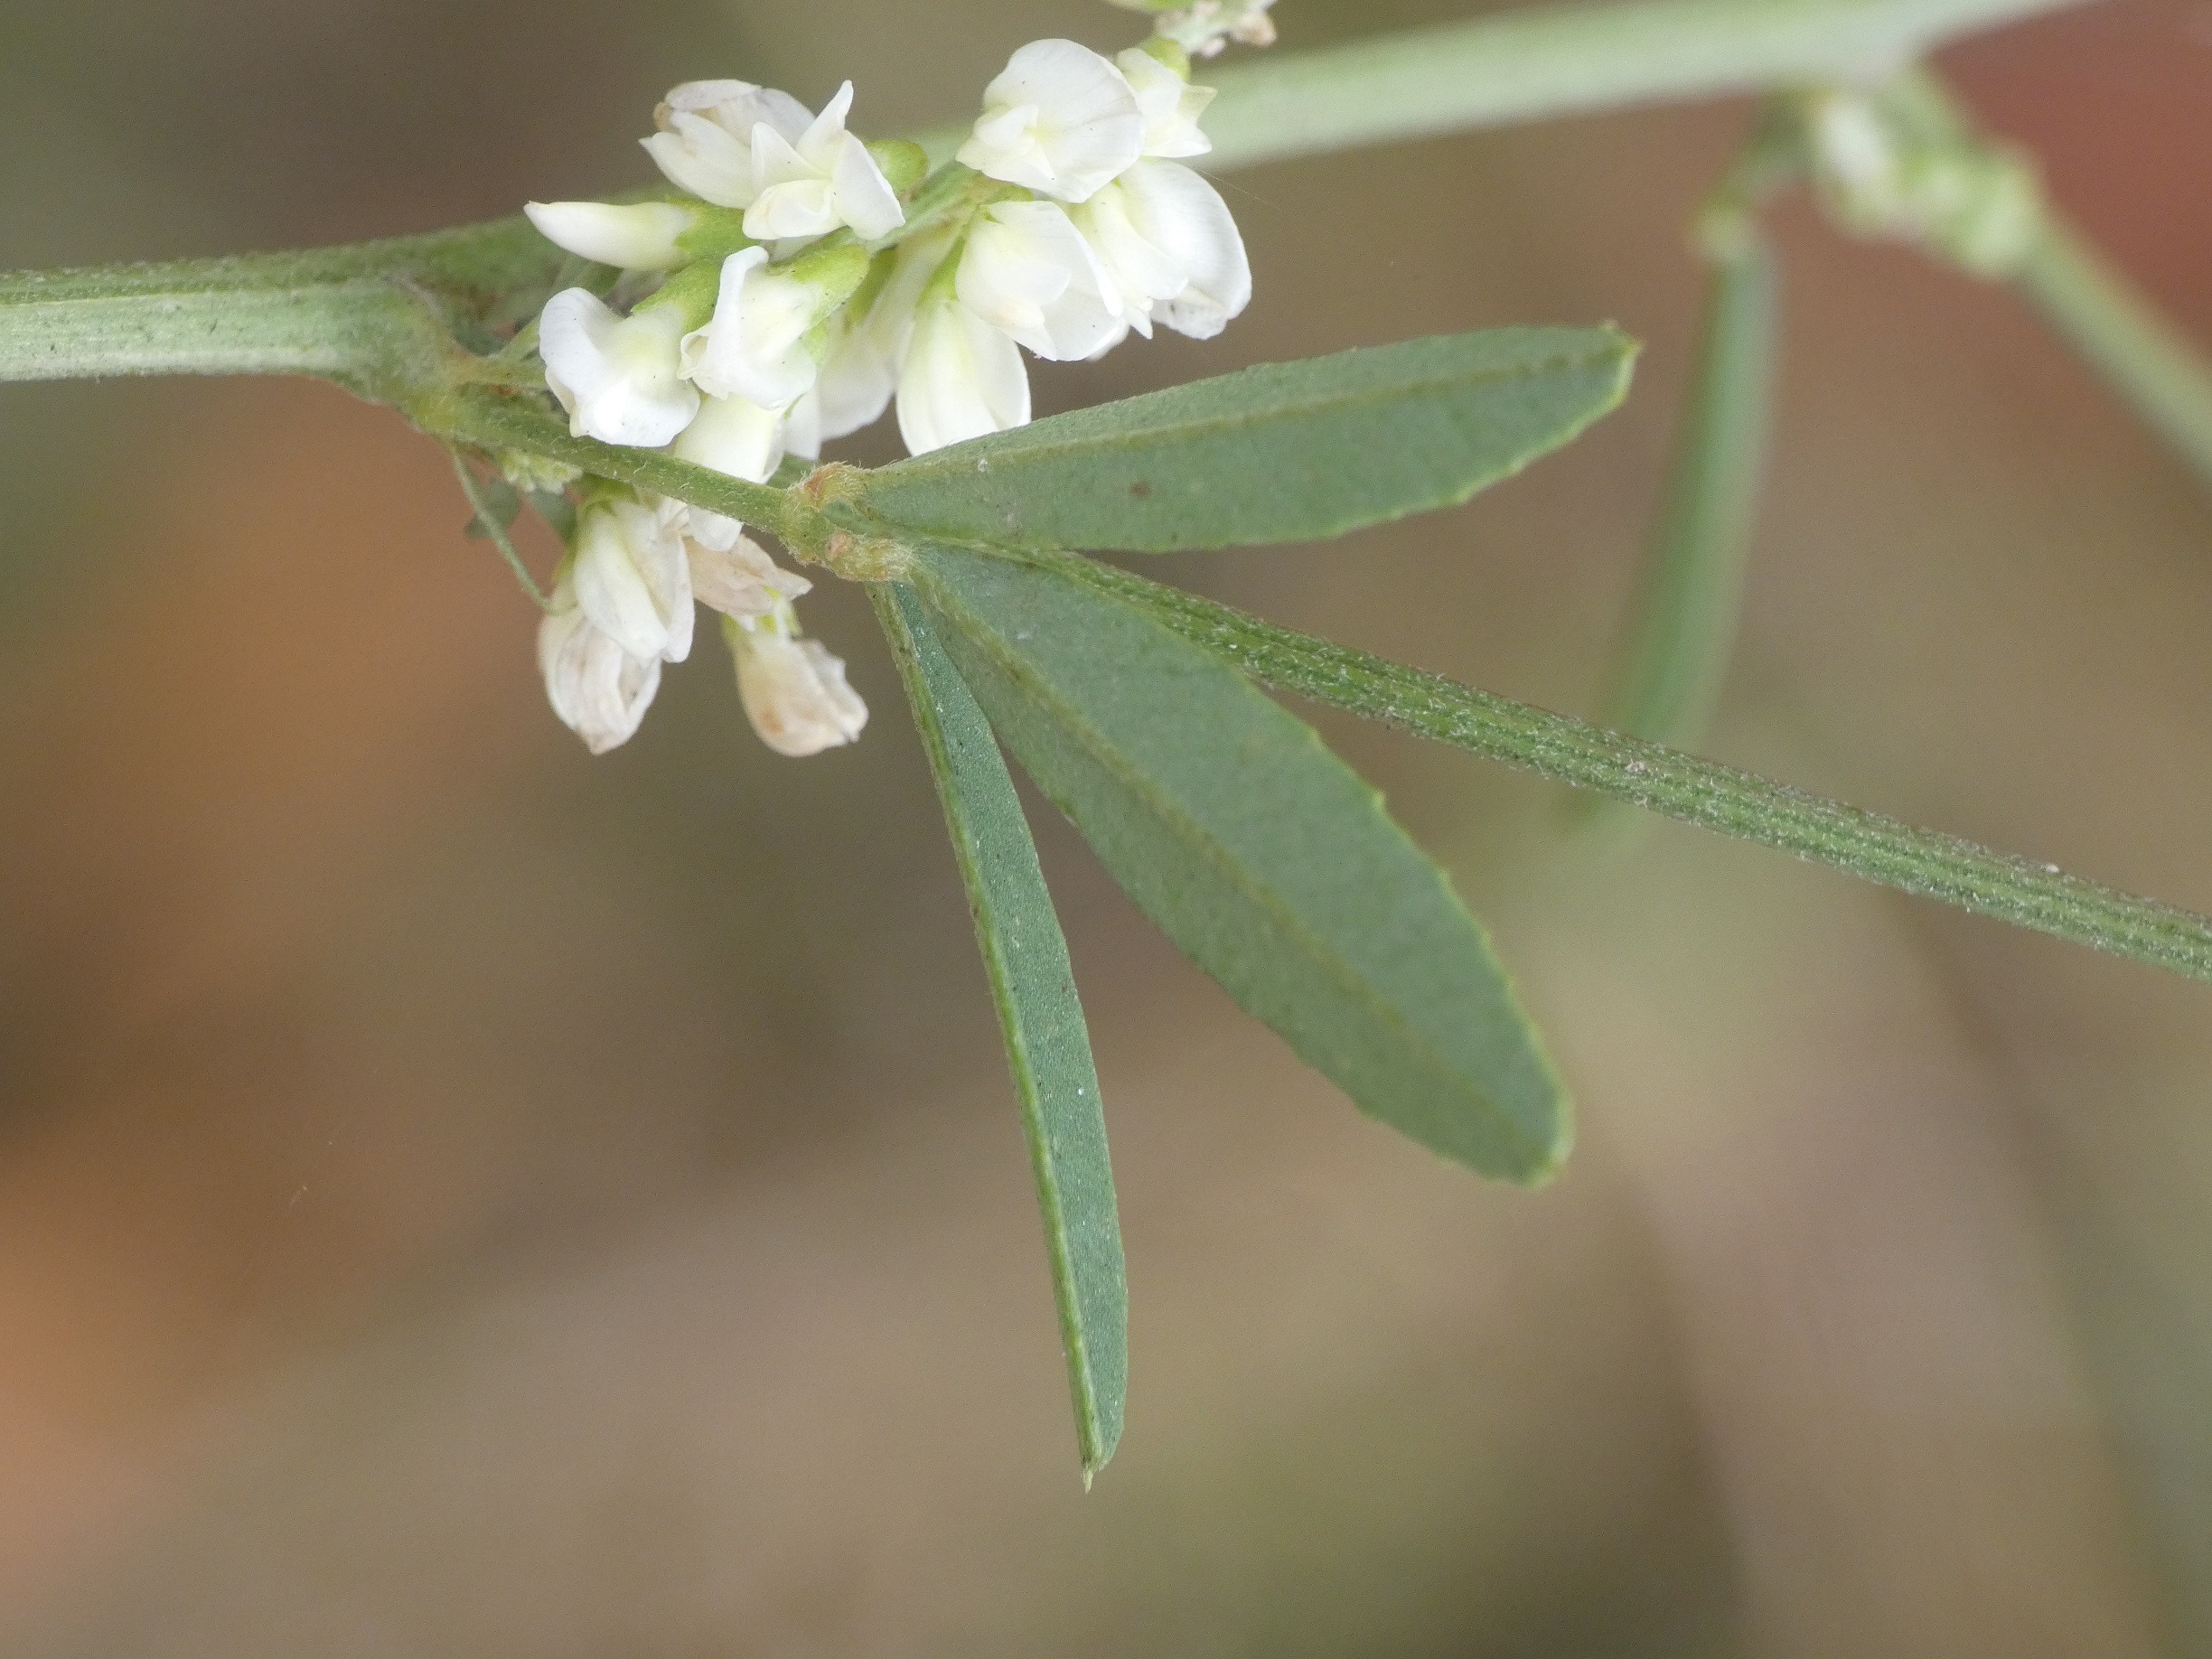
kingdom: Plantae
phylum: Tracheophyta
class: Magnoliopsida
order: Fabales
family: Fabaceae
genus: Melilotus
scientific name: Melilotus albus
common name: Hvid stenkløver
